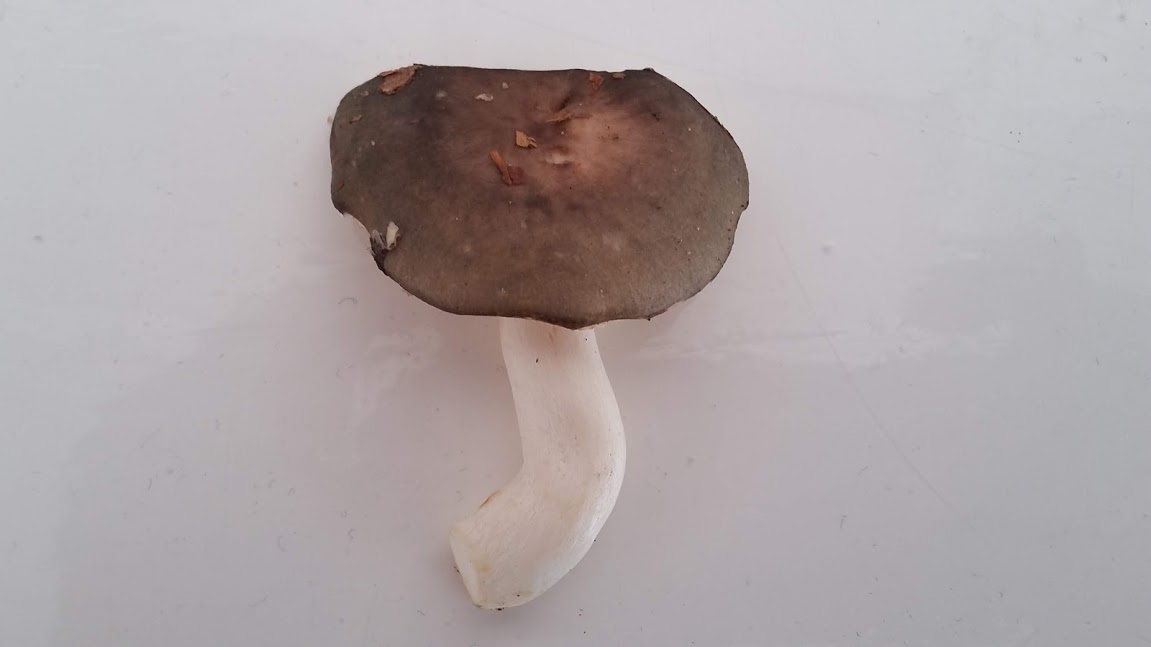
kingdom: Fungi
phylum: Basidiomycota
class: Agaricomycetes
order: Russulales
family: Russulaceae
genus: Russula
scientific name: Russula
